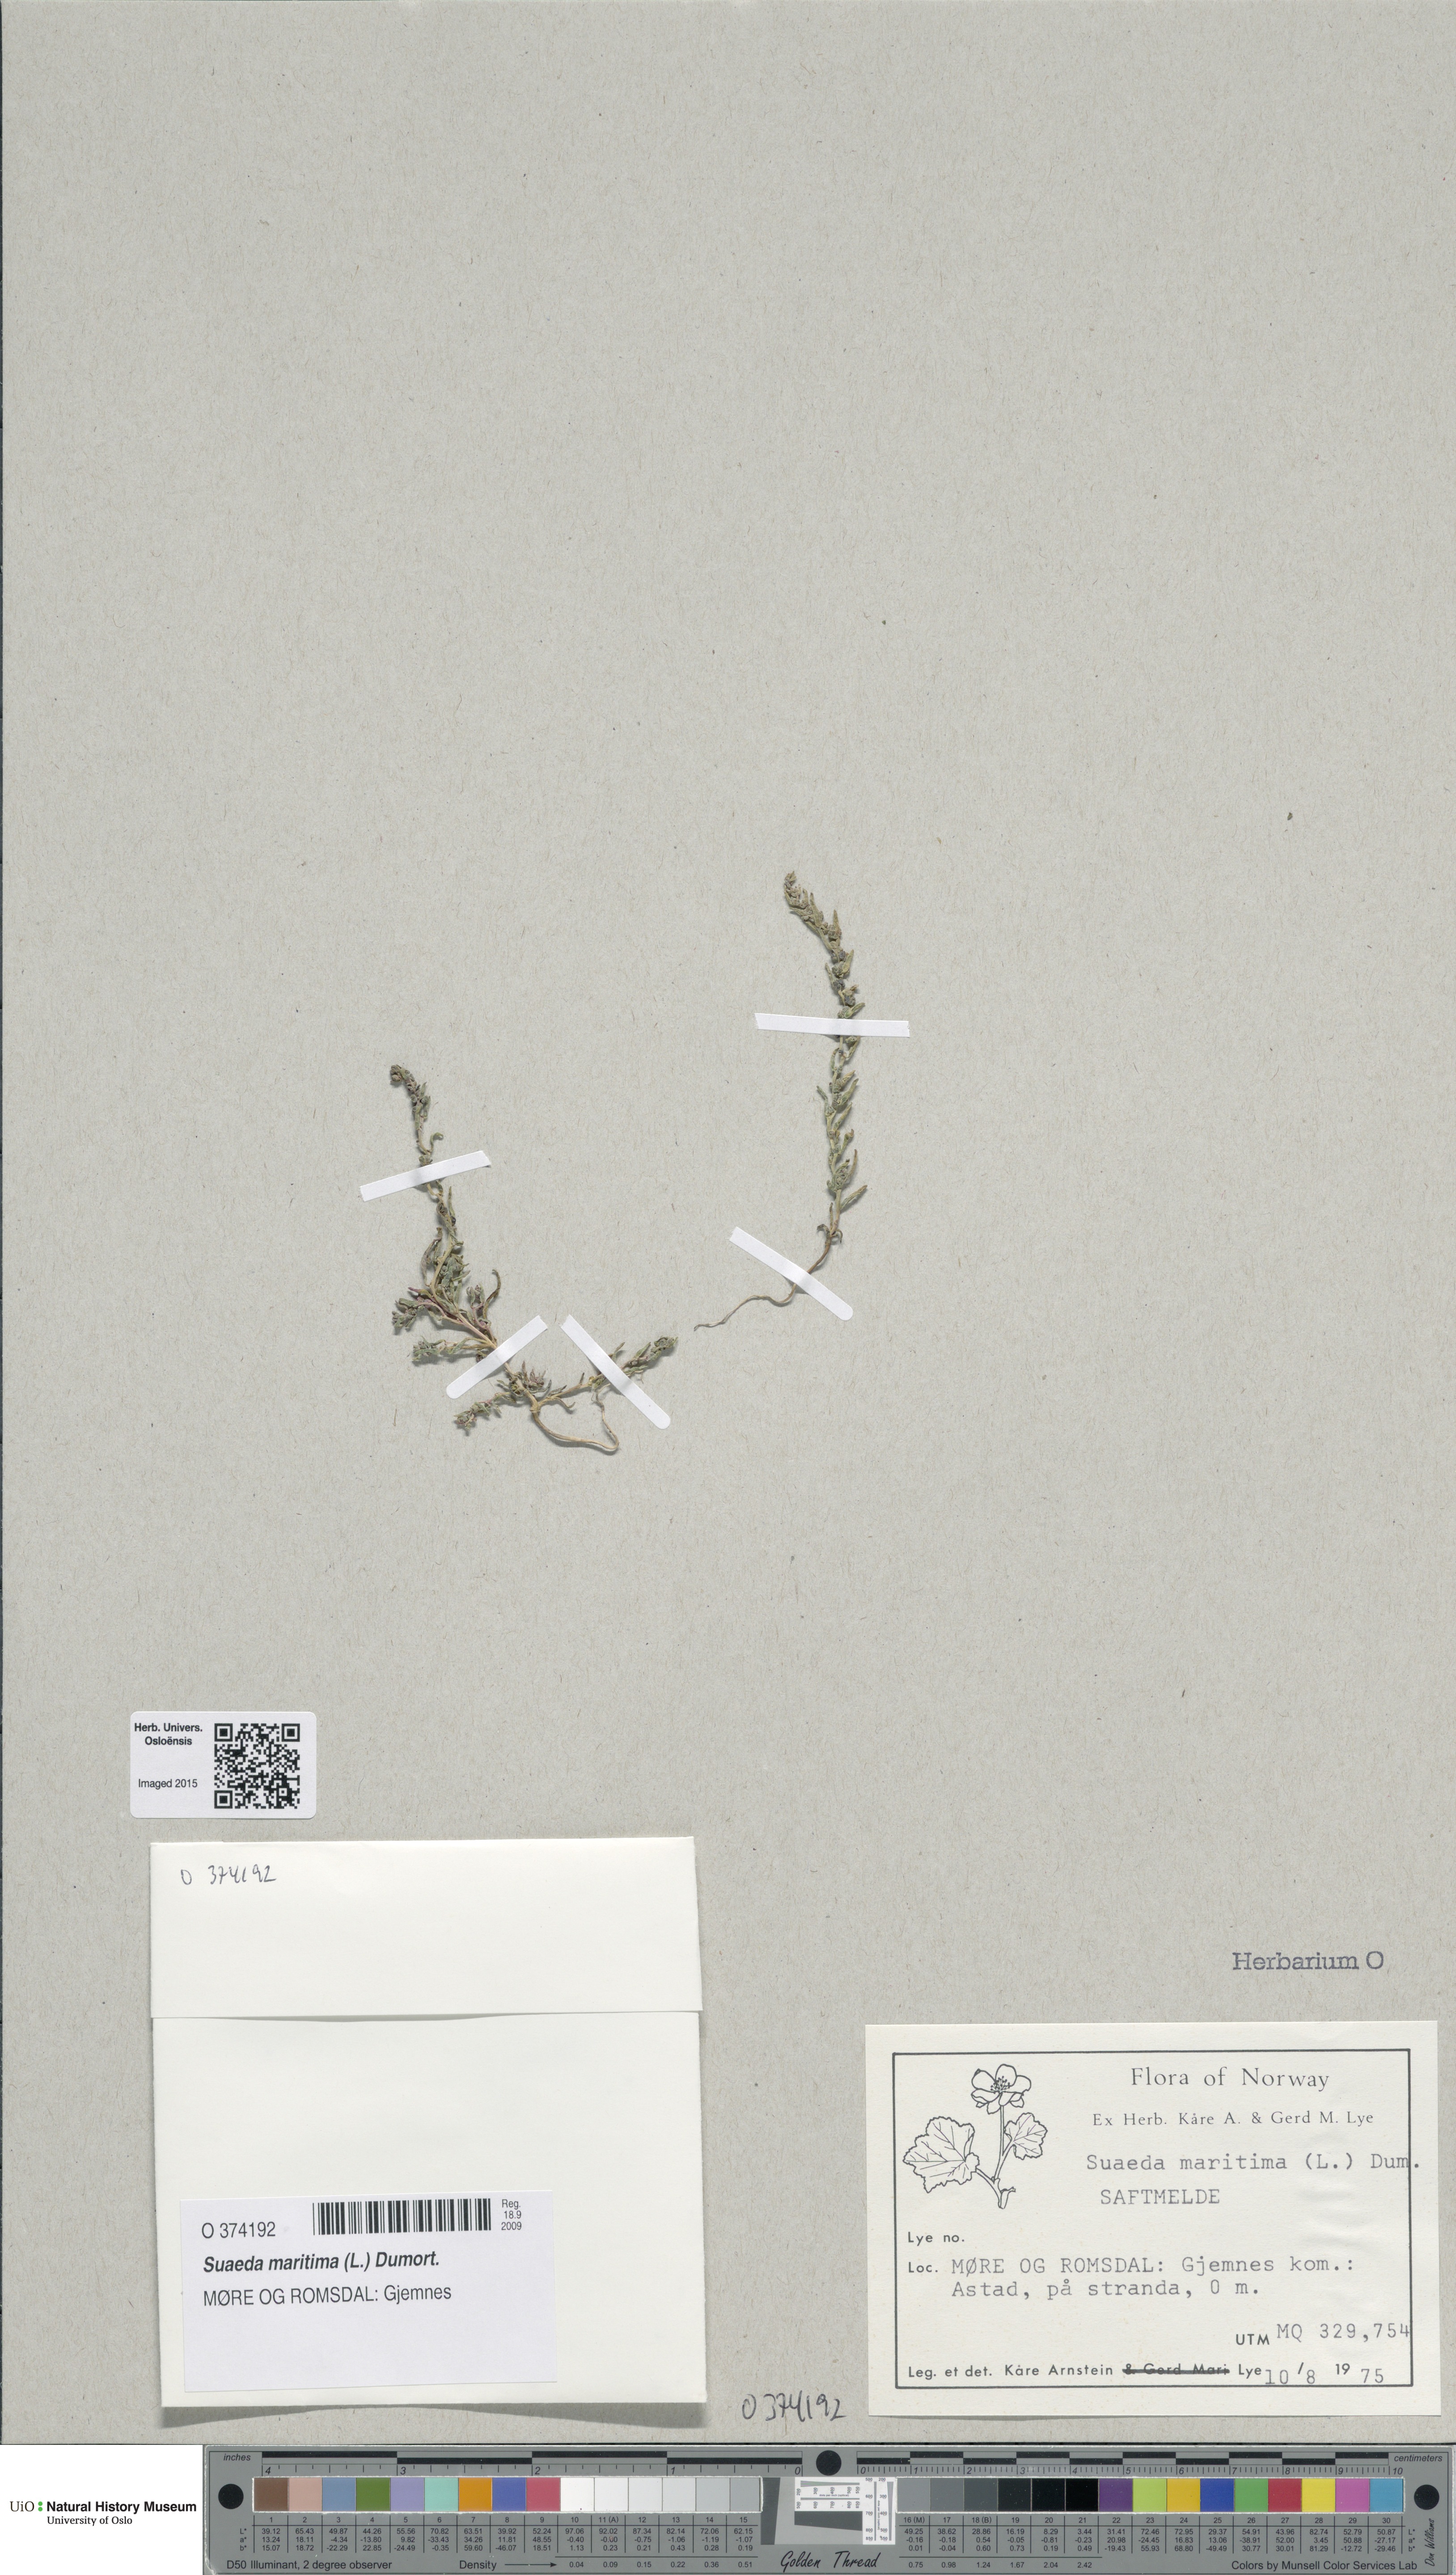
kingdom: Plantae
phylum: Tracheophyta
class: Magnoliopsida
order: Caryophyllales
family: Amaranthaceae
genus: Suaeda
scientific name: Suaeda maritima
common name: Annual sea-blite
